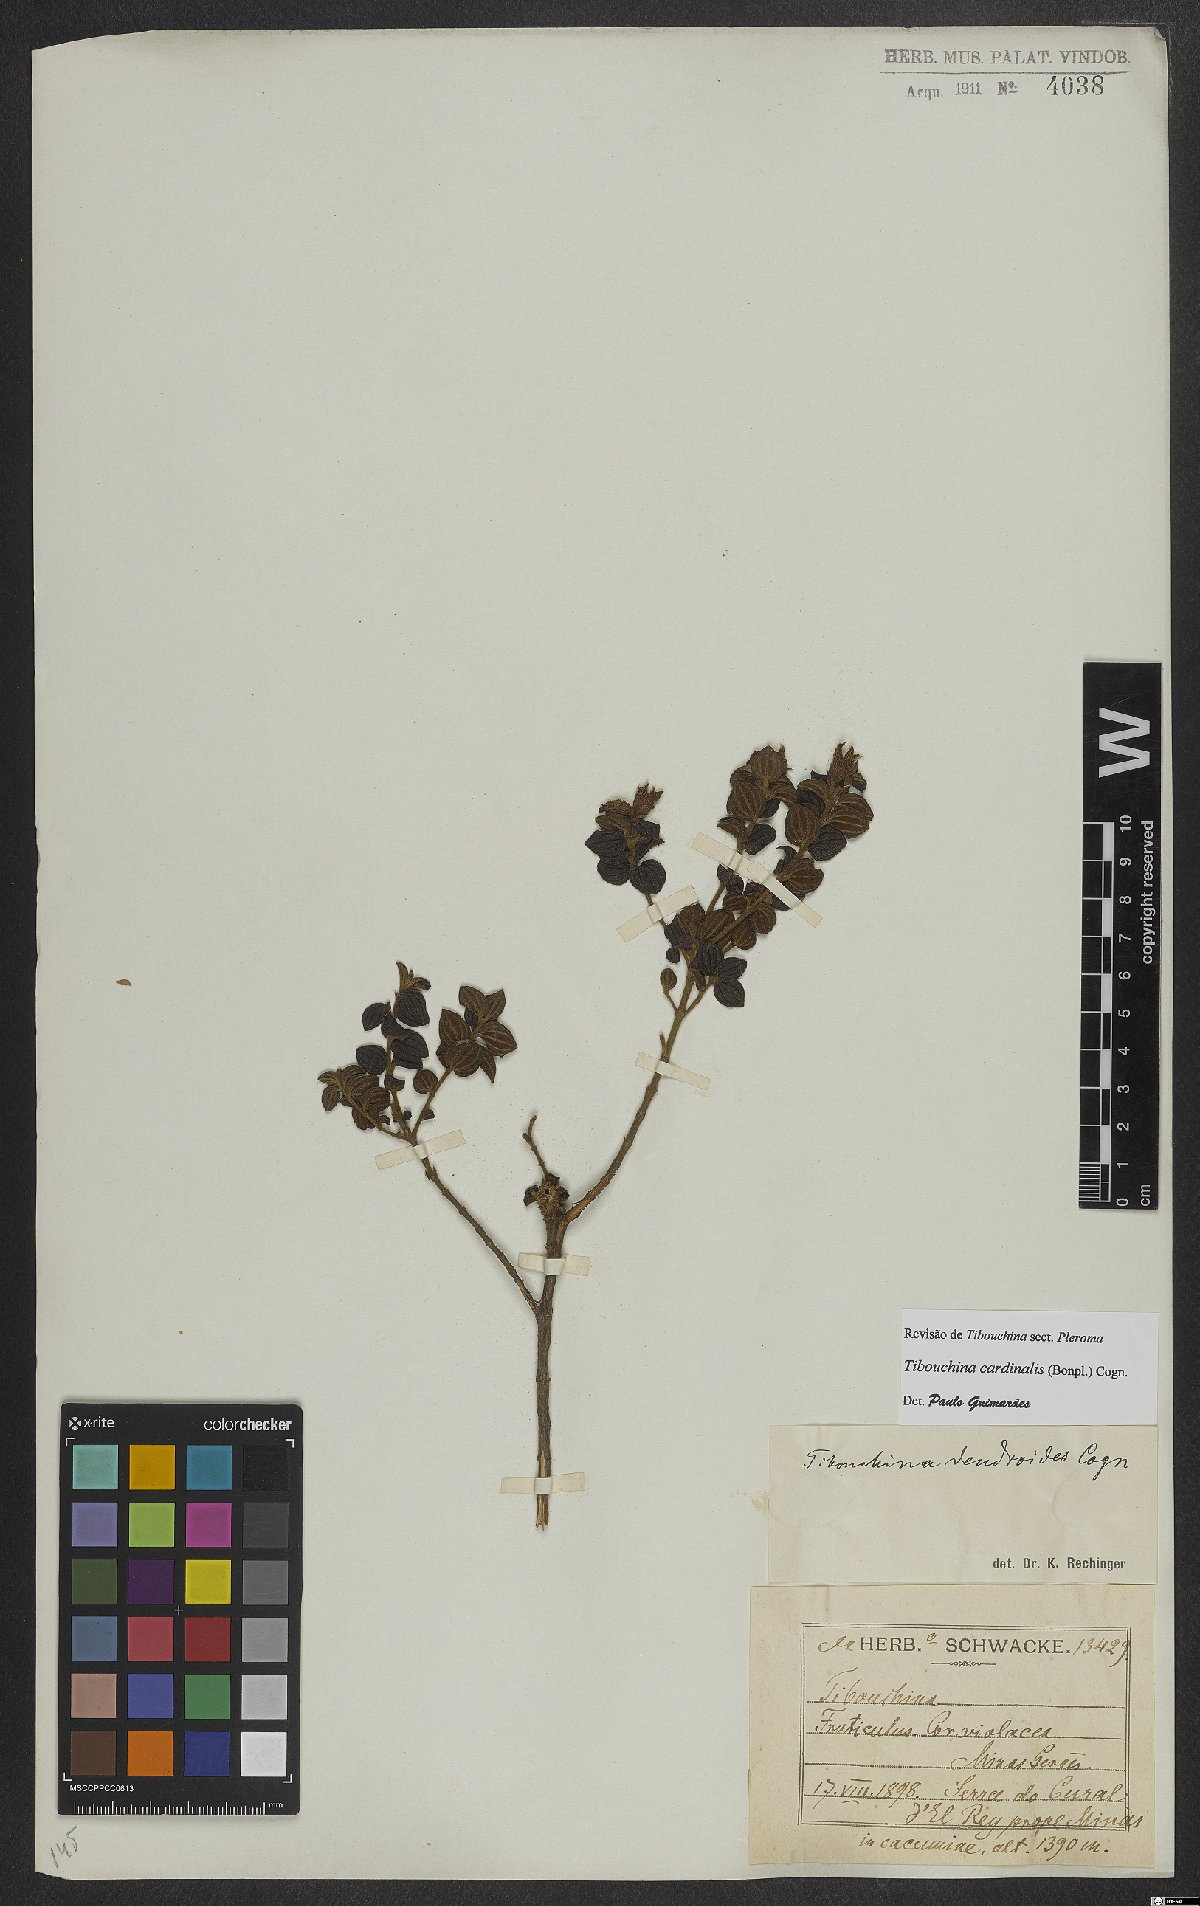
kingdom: Plantae
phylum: Tracheophyta
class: Magnoliopsida
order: Myrtales
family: Melastomataceae
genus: Chaetogastra
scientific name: Chaetogastra cardinalis
